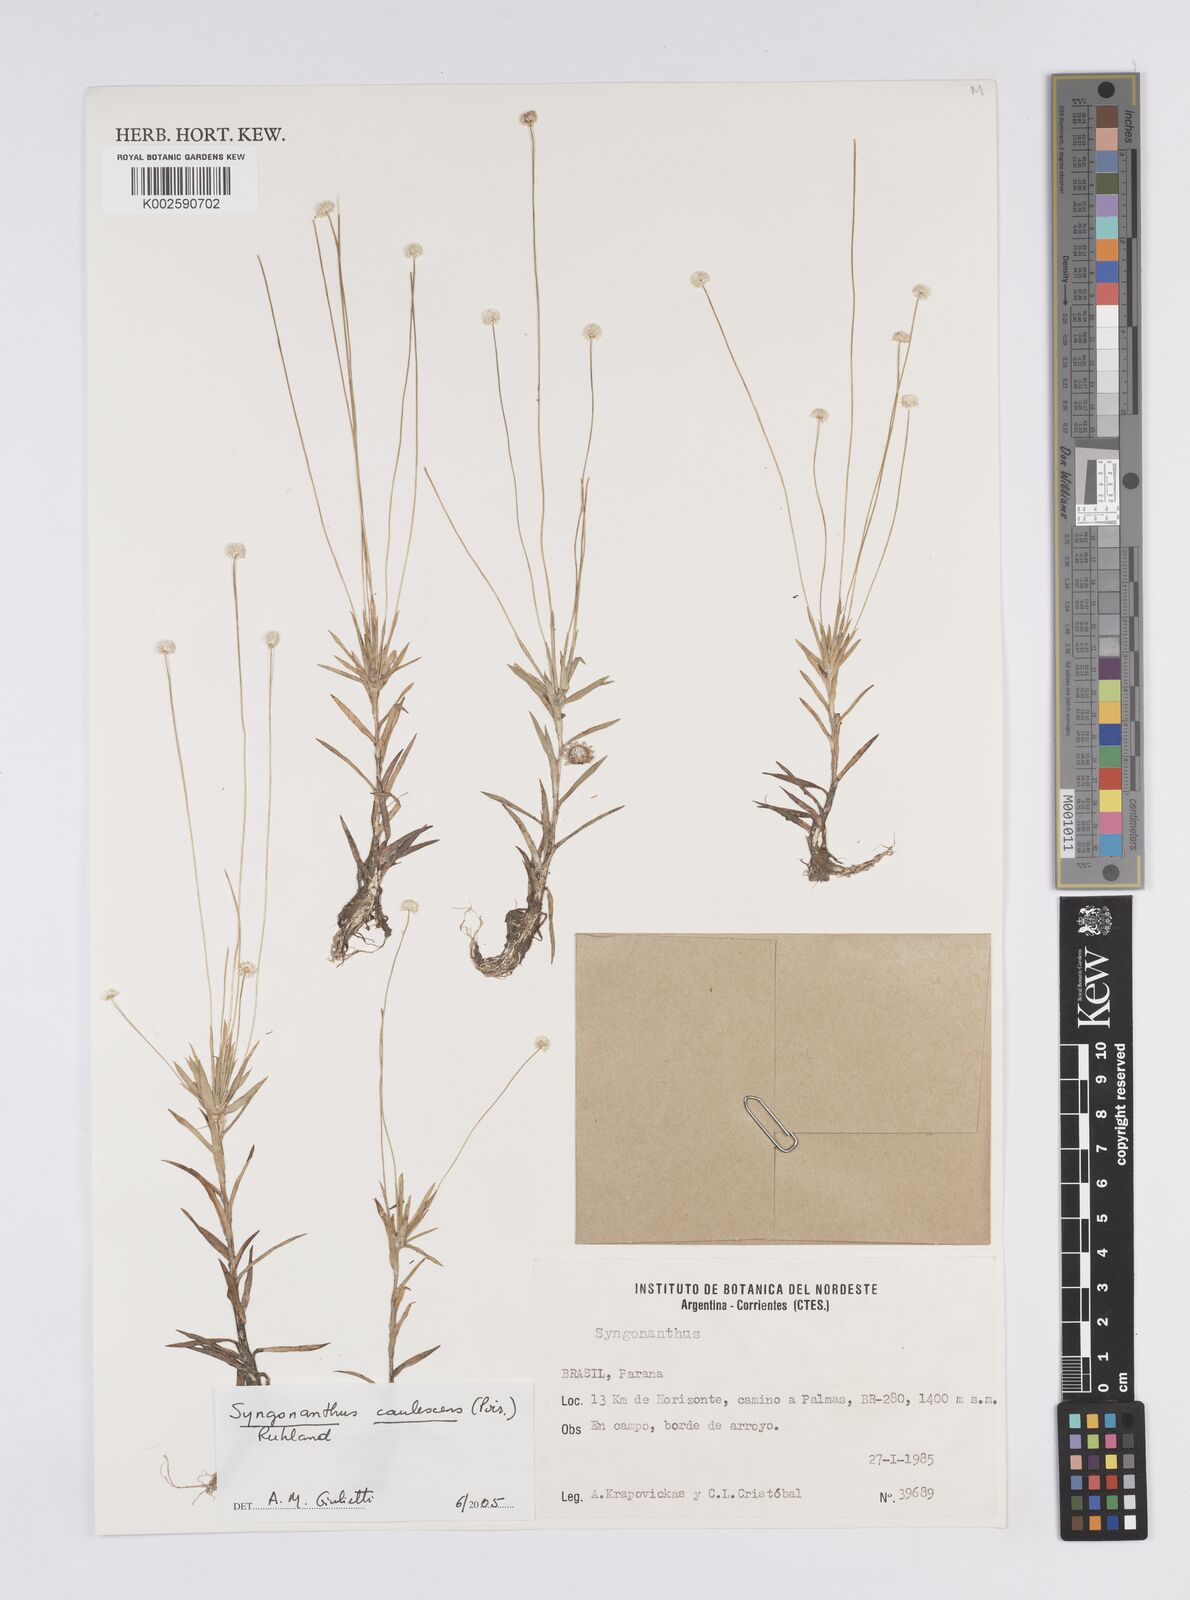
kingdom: Plantae
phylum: Tracheophyta
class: Liliopsida
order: Poales
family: Eriocaulaceae
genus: Syngonanthus
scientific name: Syngonanthus caulescens
